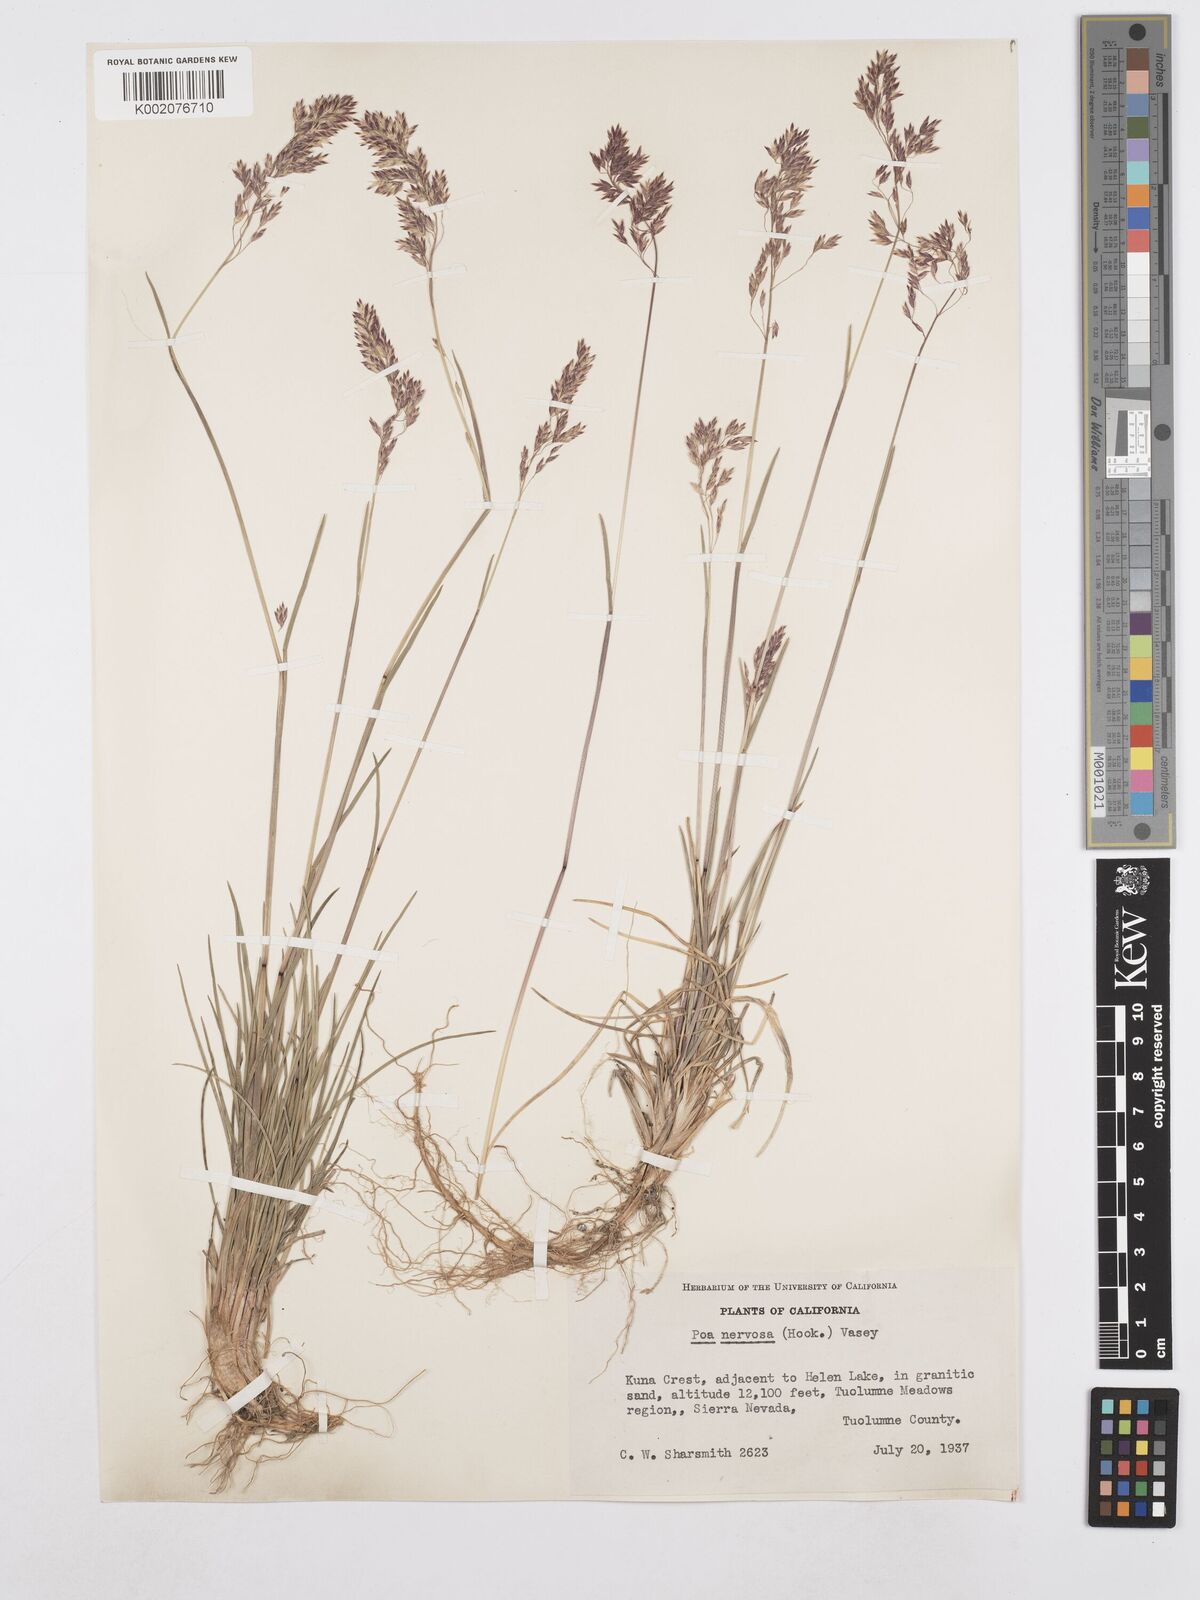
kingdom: Plantae
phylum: Tracheophyta
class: Liliopsida
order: Poales
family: Poaceae
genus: Poa
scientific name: Poa nervosa
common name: Hooker's bluegrass
